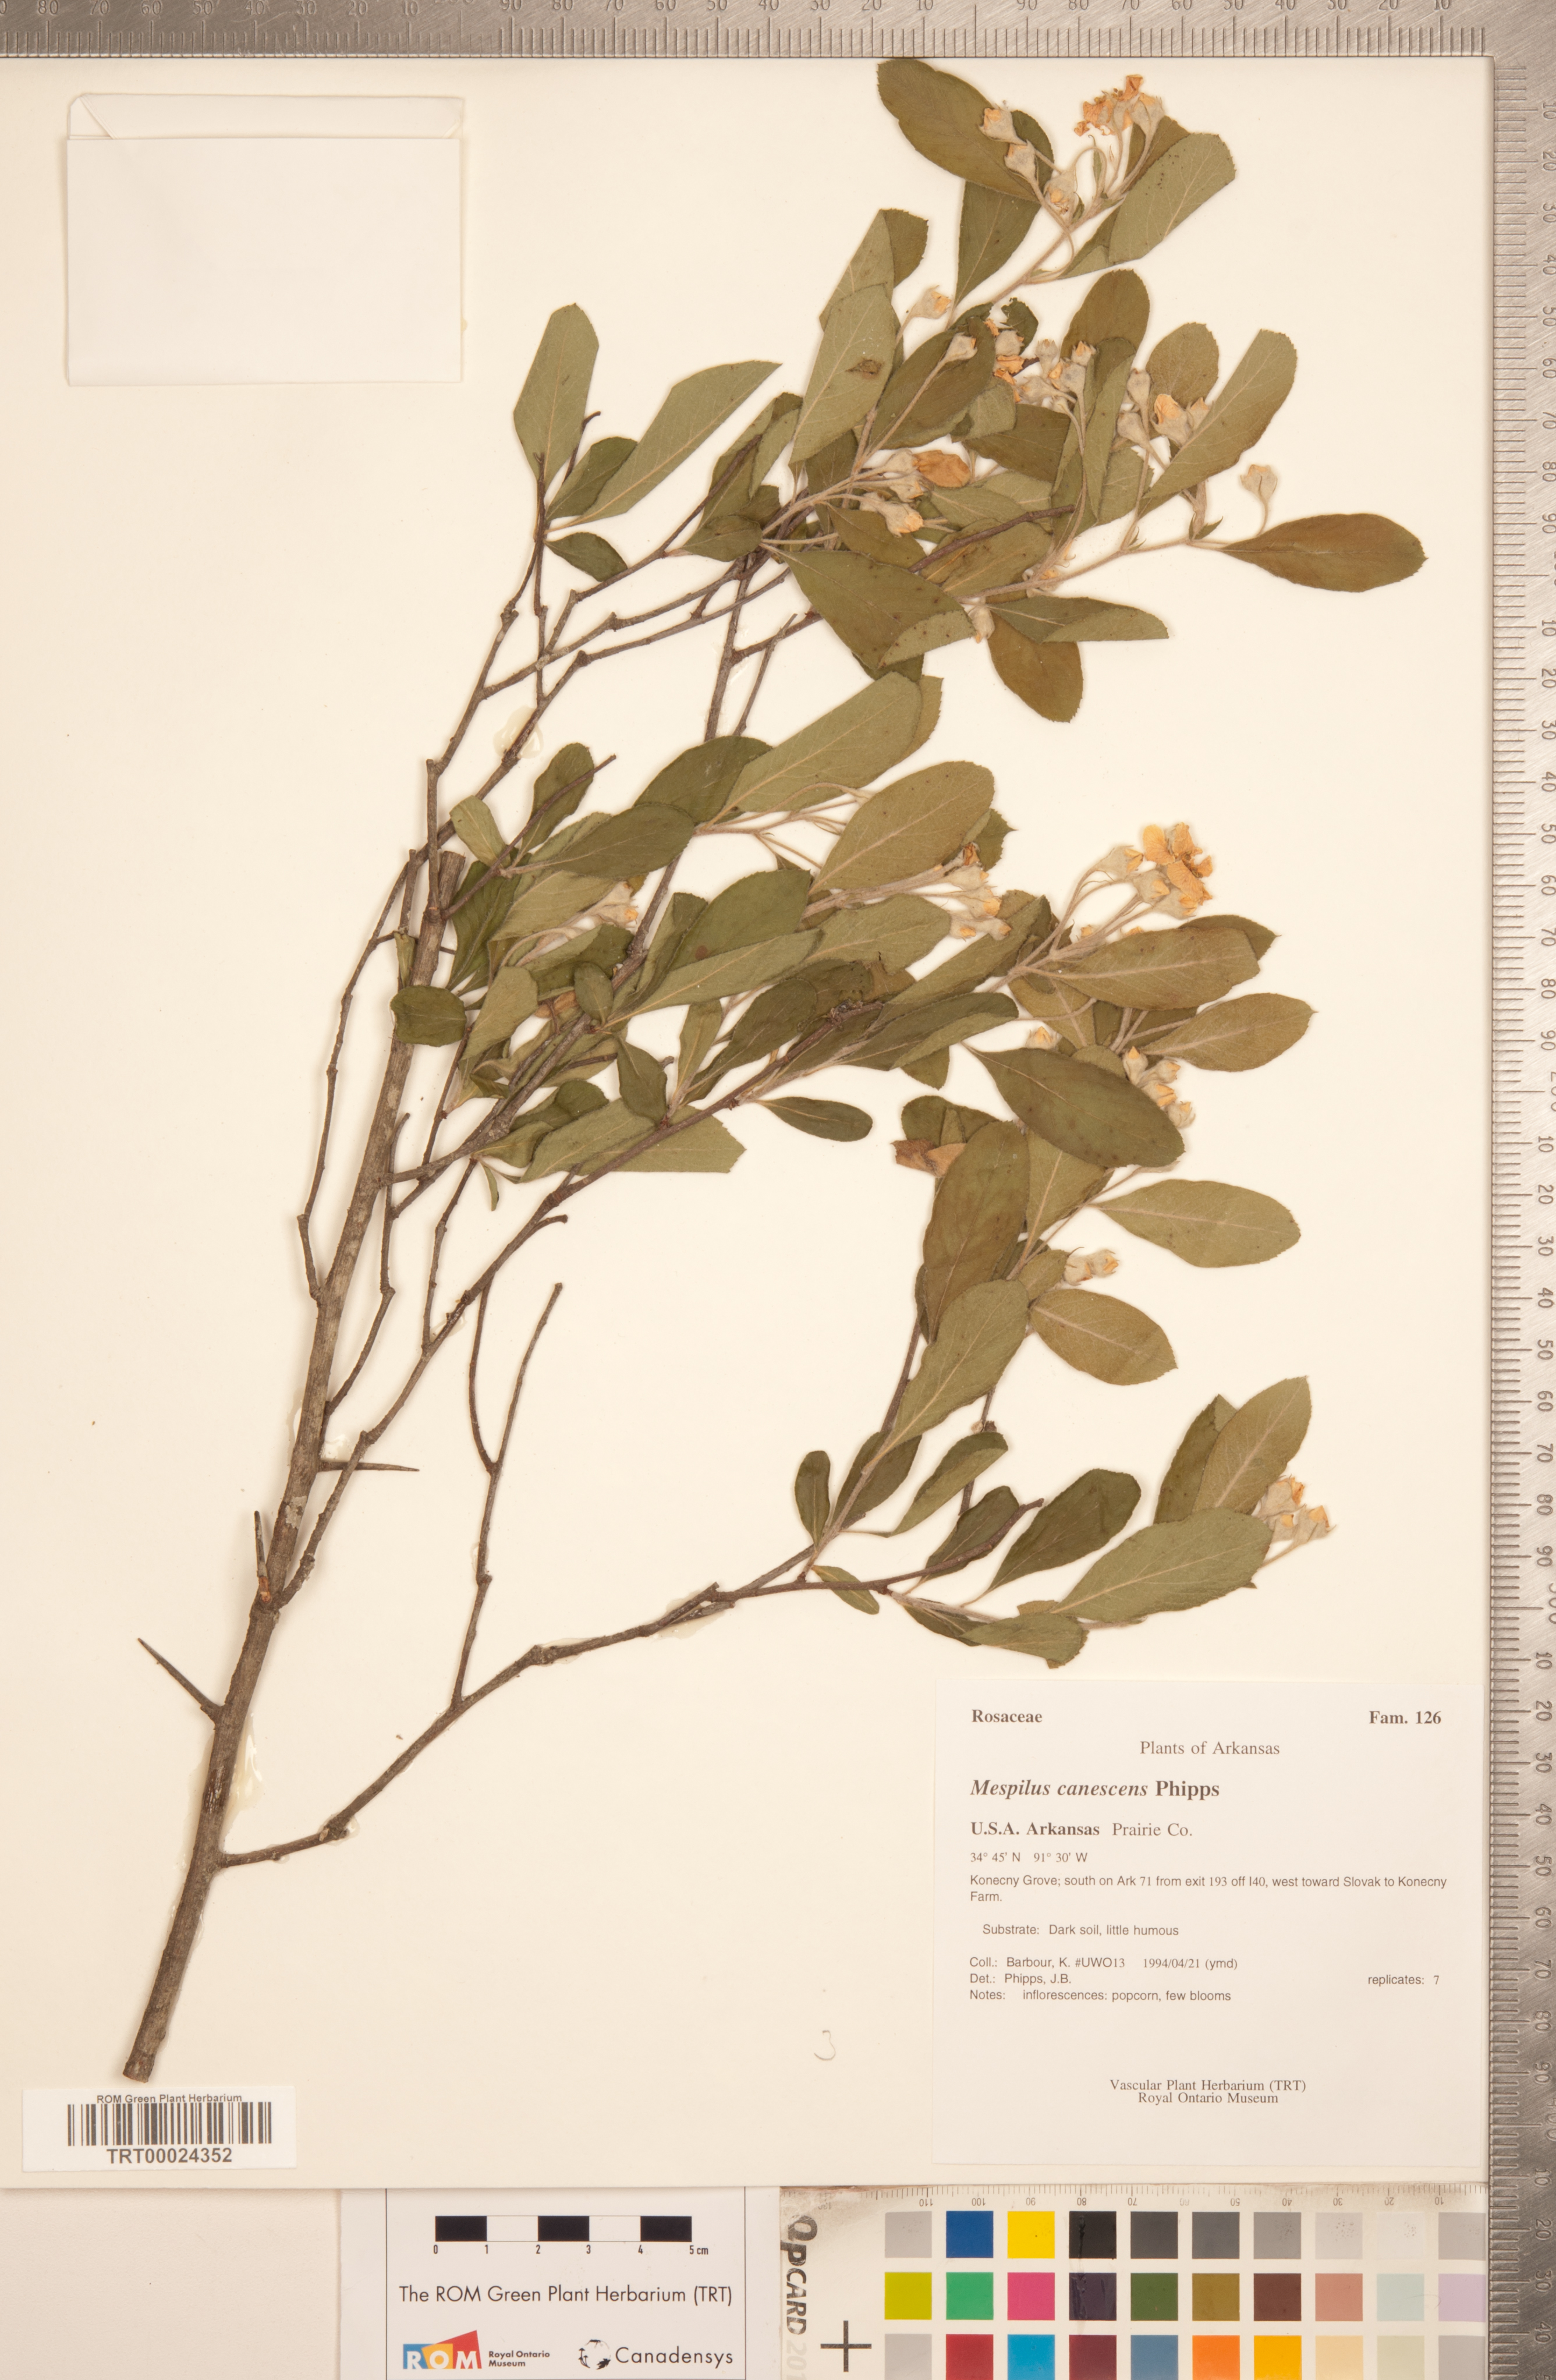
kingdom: Plantae
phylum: Tracheophyta
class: Magnoliopsida
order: Rosales
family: Rosaceae
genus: Crataemespilus
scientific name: Crataemespilus canescens
